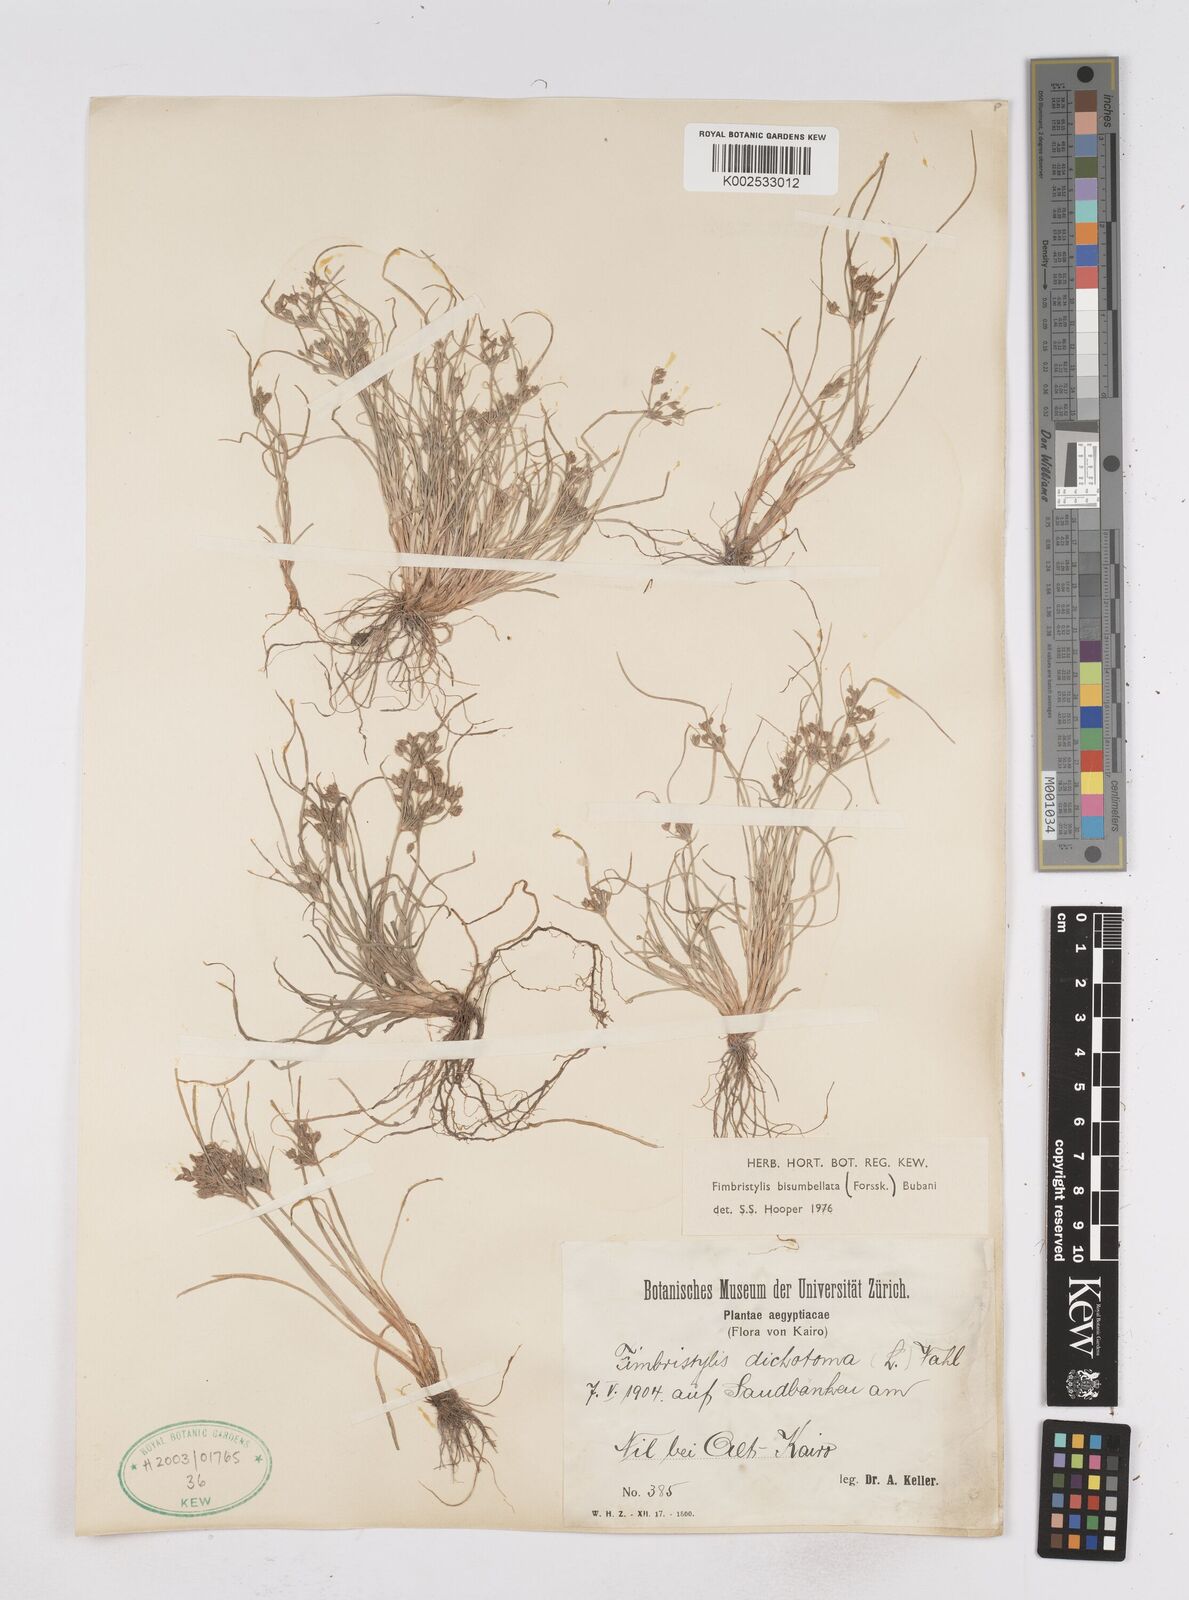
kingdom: Plantae
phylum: Tracheophyta
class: Liliopsida
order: Poales
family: Cyperaceae
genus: Fimbristylis
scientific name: Fimbristylis bisumbellata
